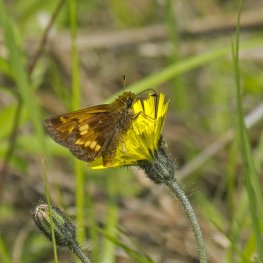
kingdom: Animalia
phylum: Arthropoda
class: Insecta
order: Lepidoptera
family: Hesperiidae
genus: Lon
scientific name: Lon hobomok
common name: Hobomok Skipper
